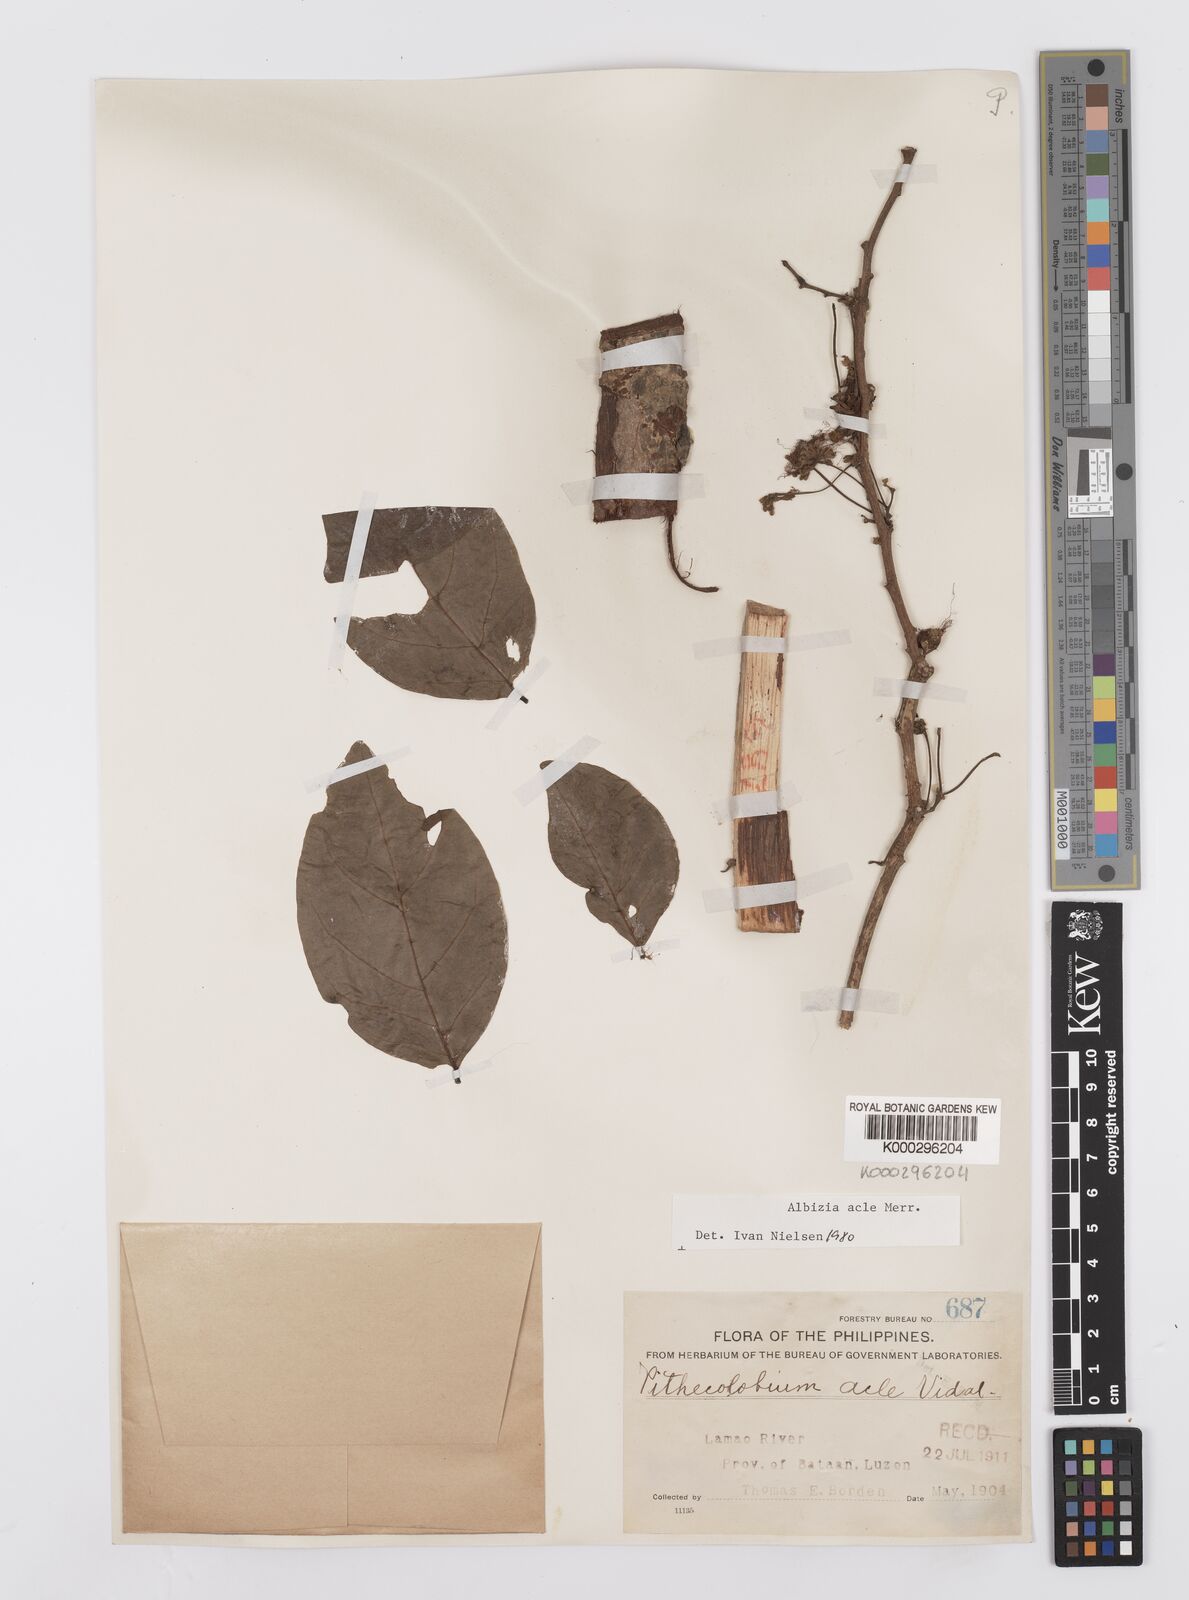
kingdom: Plantae
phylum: Tracheophyta
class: Magnoliopsida
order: Fabales
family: Fabaceae
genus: Albizia
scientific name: Albizia acle
